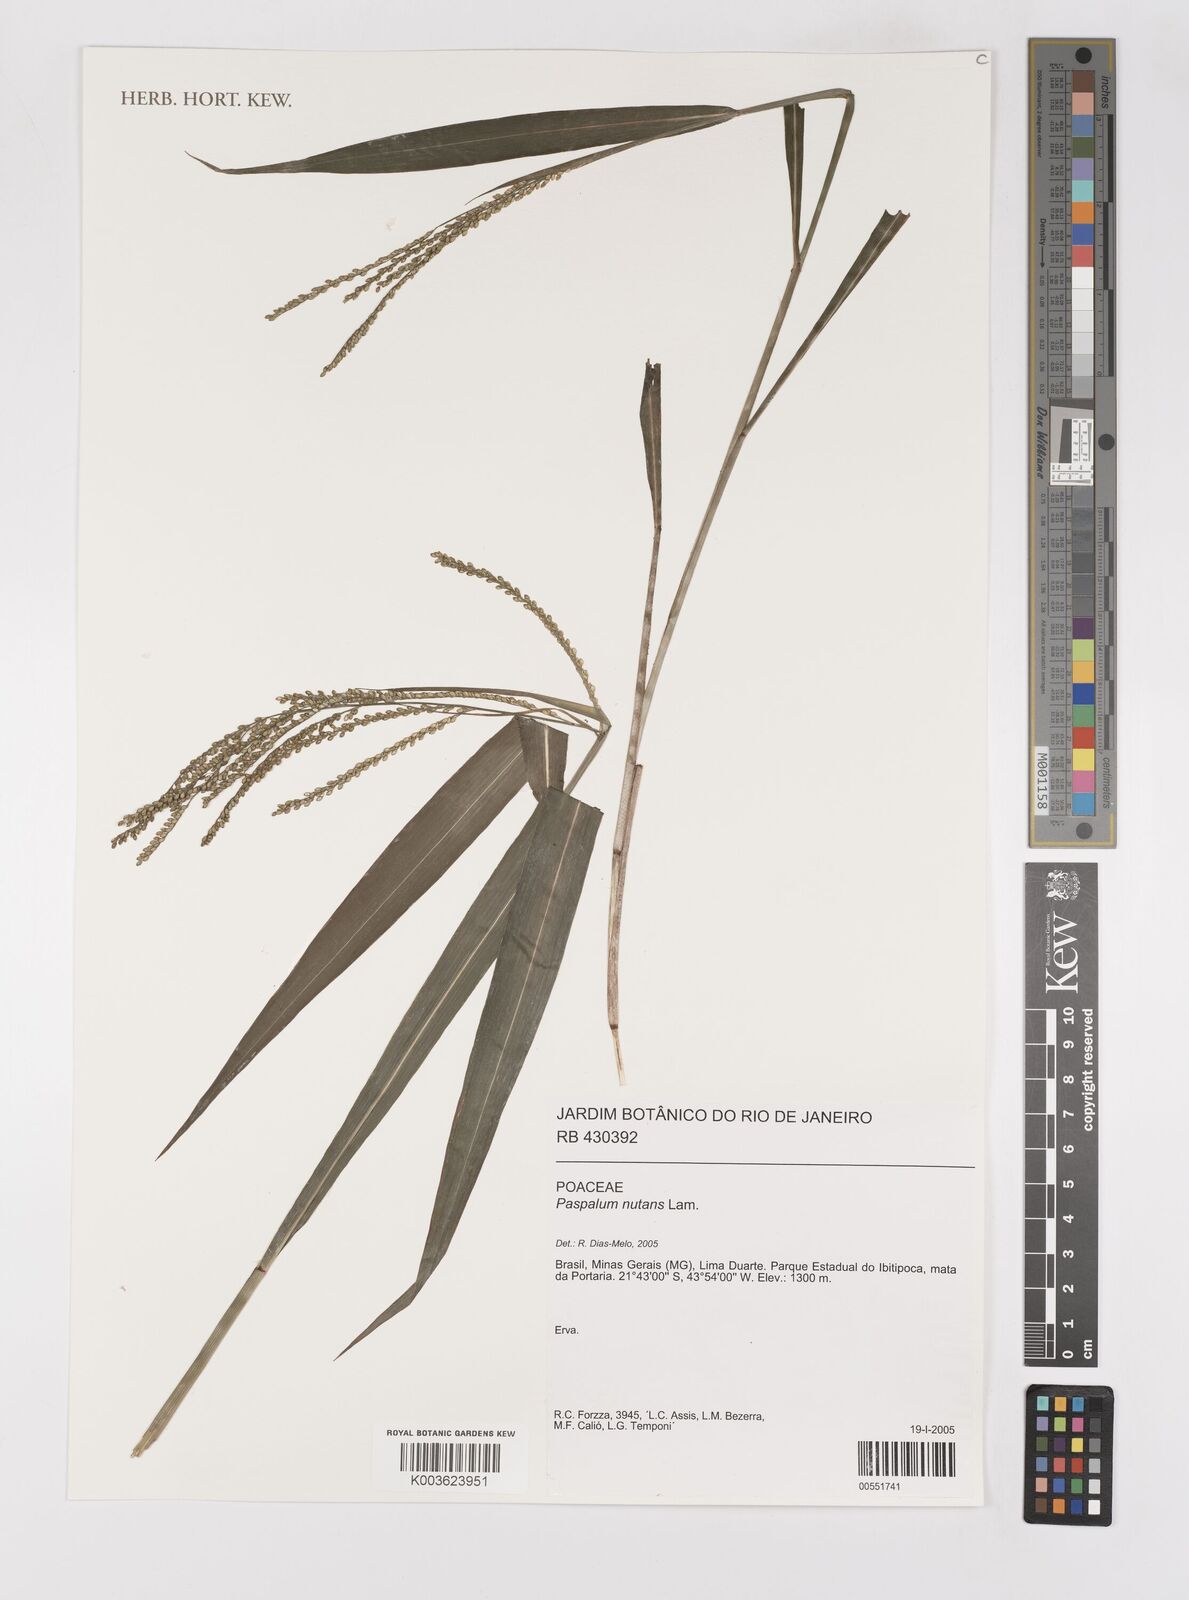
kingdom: Plantae
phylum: Tracheophyta
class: Liliopsida
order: Poales
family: Poaceae
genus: Paspalum
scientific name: Paspalum nutans
